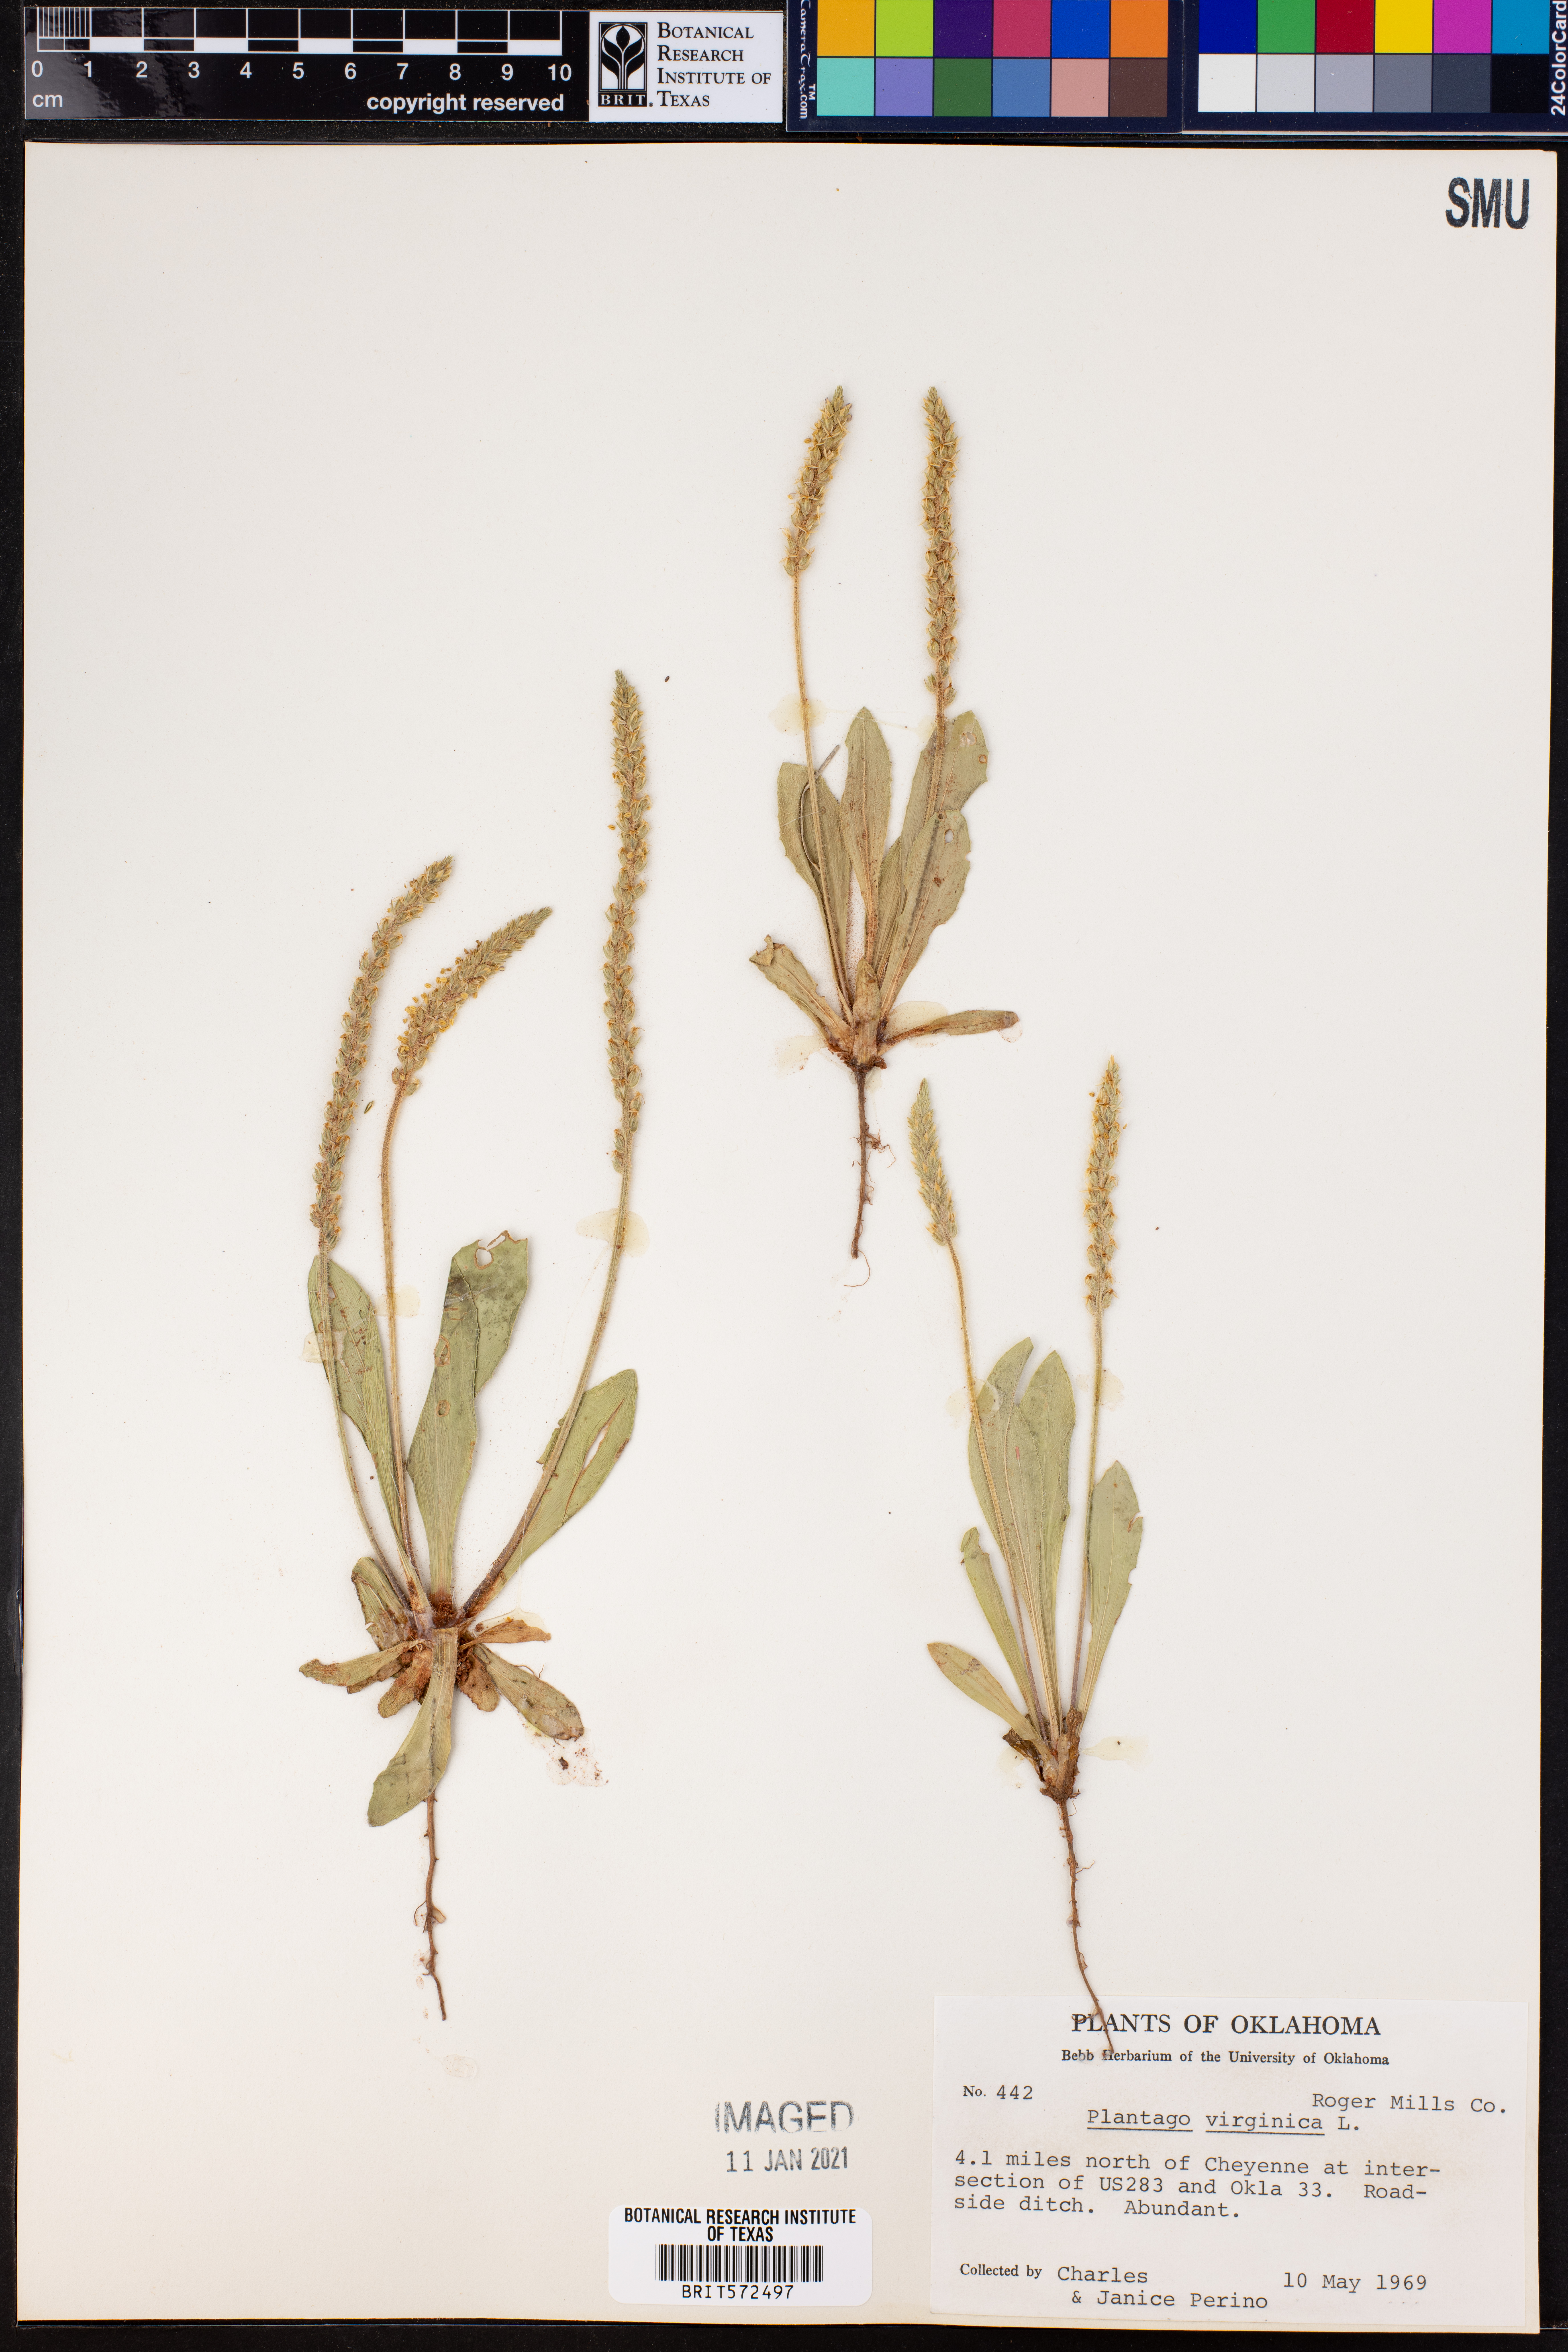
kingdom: Plantae
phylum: Tracheophyta
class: Magnoliopsida
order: Lamiales
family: Plantaginaceae
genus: Plantago
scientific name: Plantago virginica
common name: Hoary plantain
